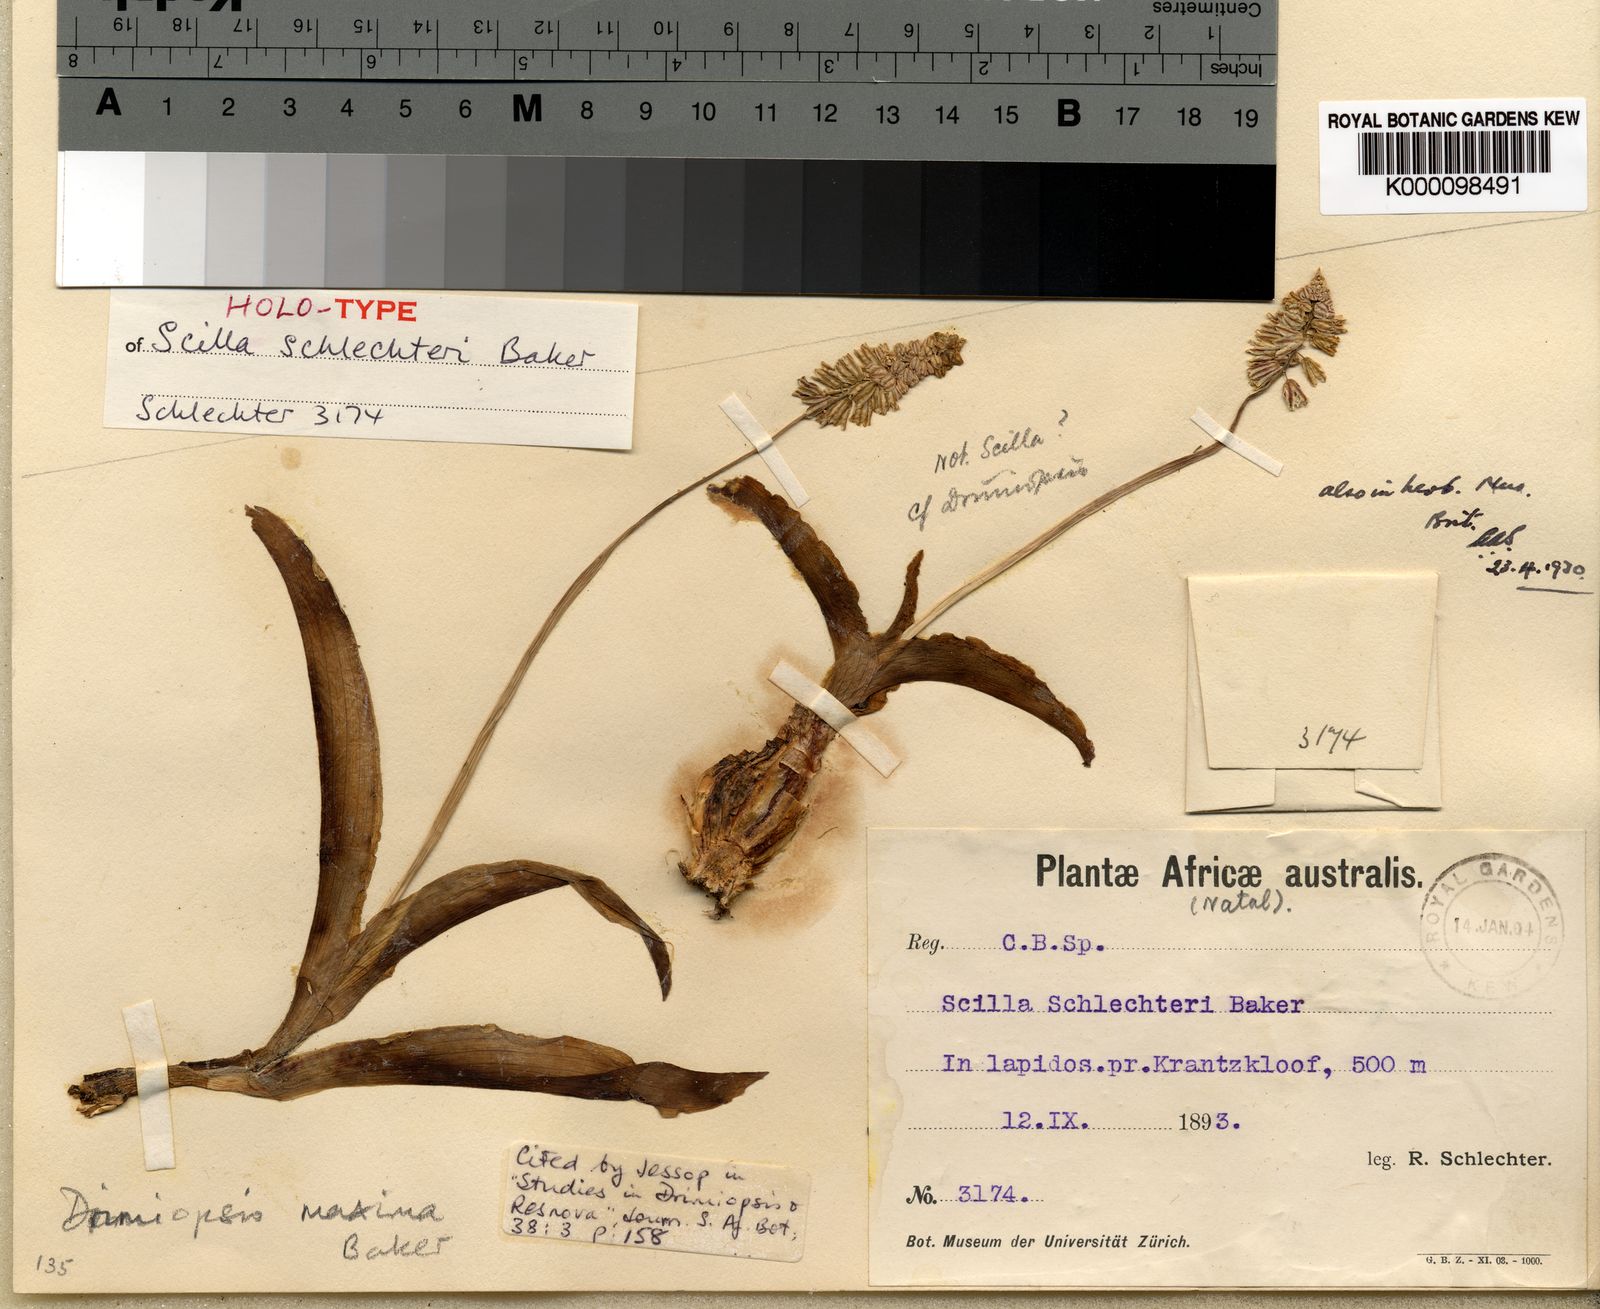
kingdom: Plantae
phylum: Tracheophyta
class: Liliopsida
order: Asparagales
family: Asparagaceae
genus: Resnova
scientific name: Resnova humifusa
